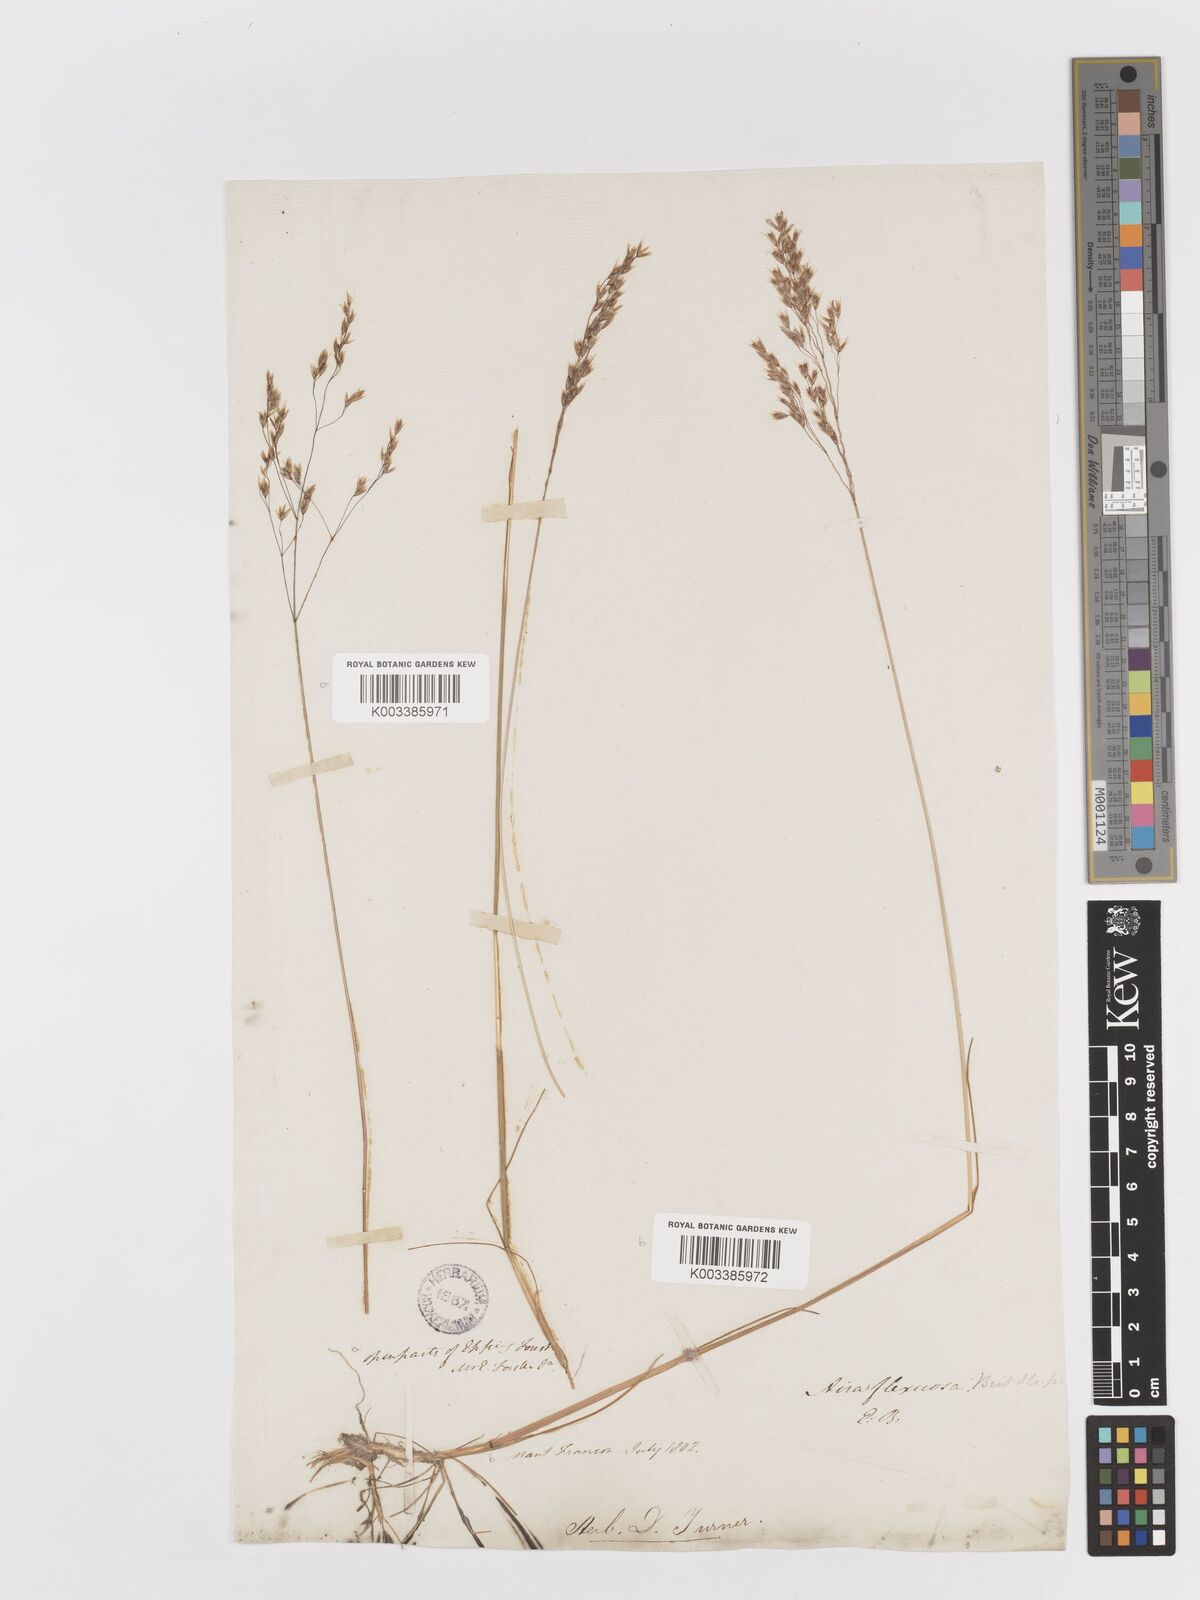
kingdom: Plantae
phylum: Tracheophyta
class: Liliopsida
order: Poales
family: Poaceae
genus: Avenella
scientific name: Avenella flexuosa
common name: Wavy hairgrass
